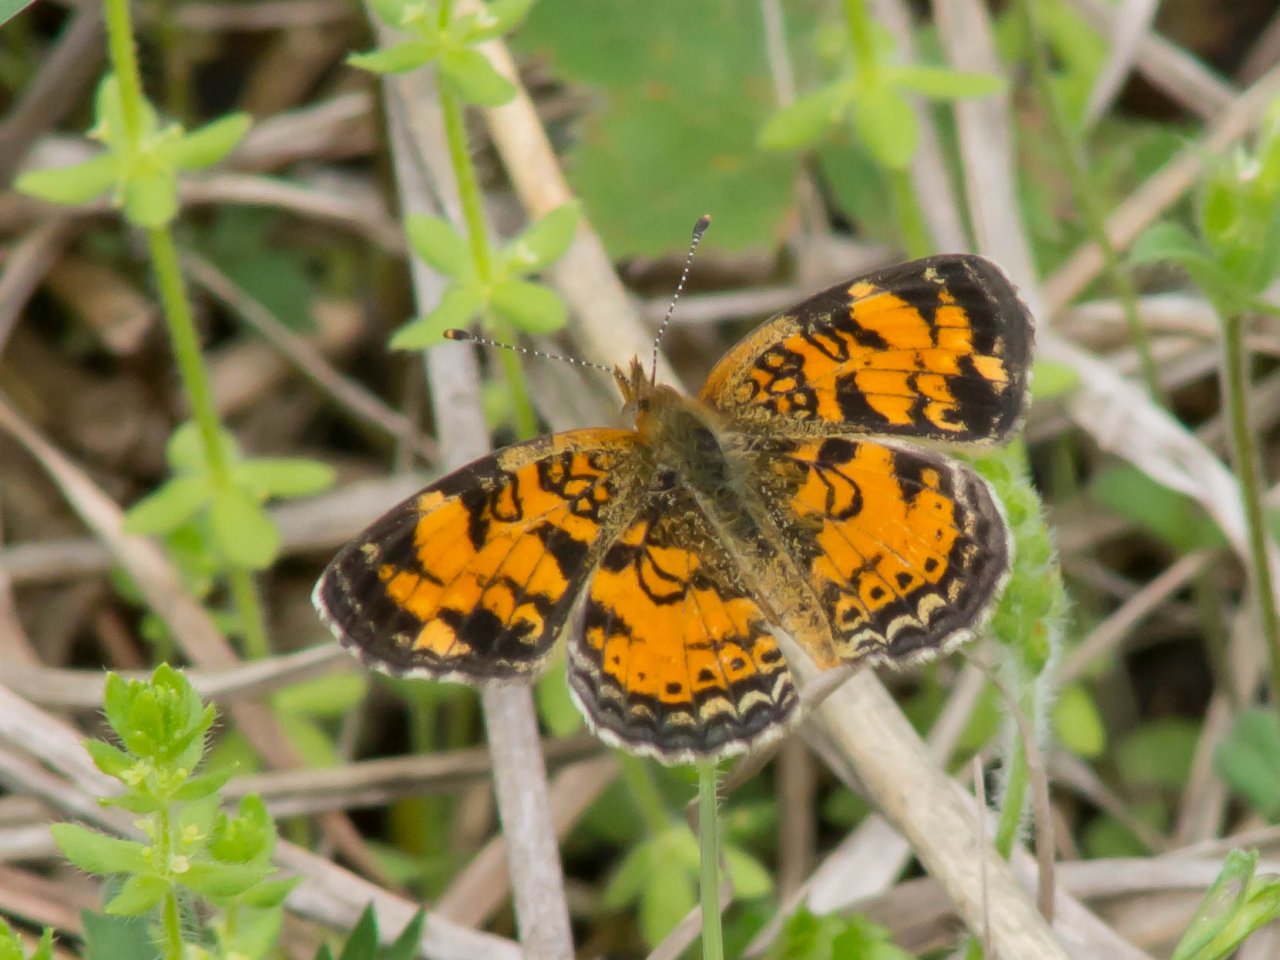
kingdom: Animalia
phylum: Arthropoda
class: Insecta
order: Lepidoptera
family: Nymphalidae
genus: Phyciodes
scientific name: Phyciodes tharos
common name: Pearl Crescent
